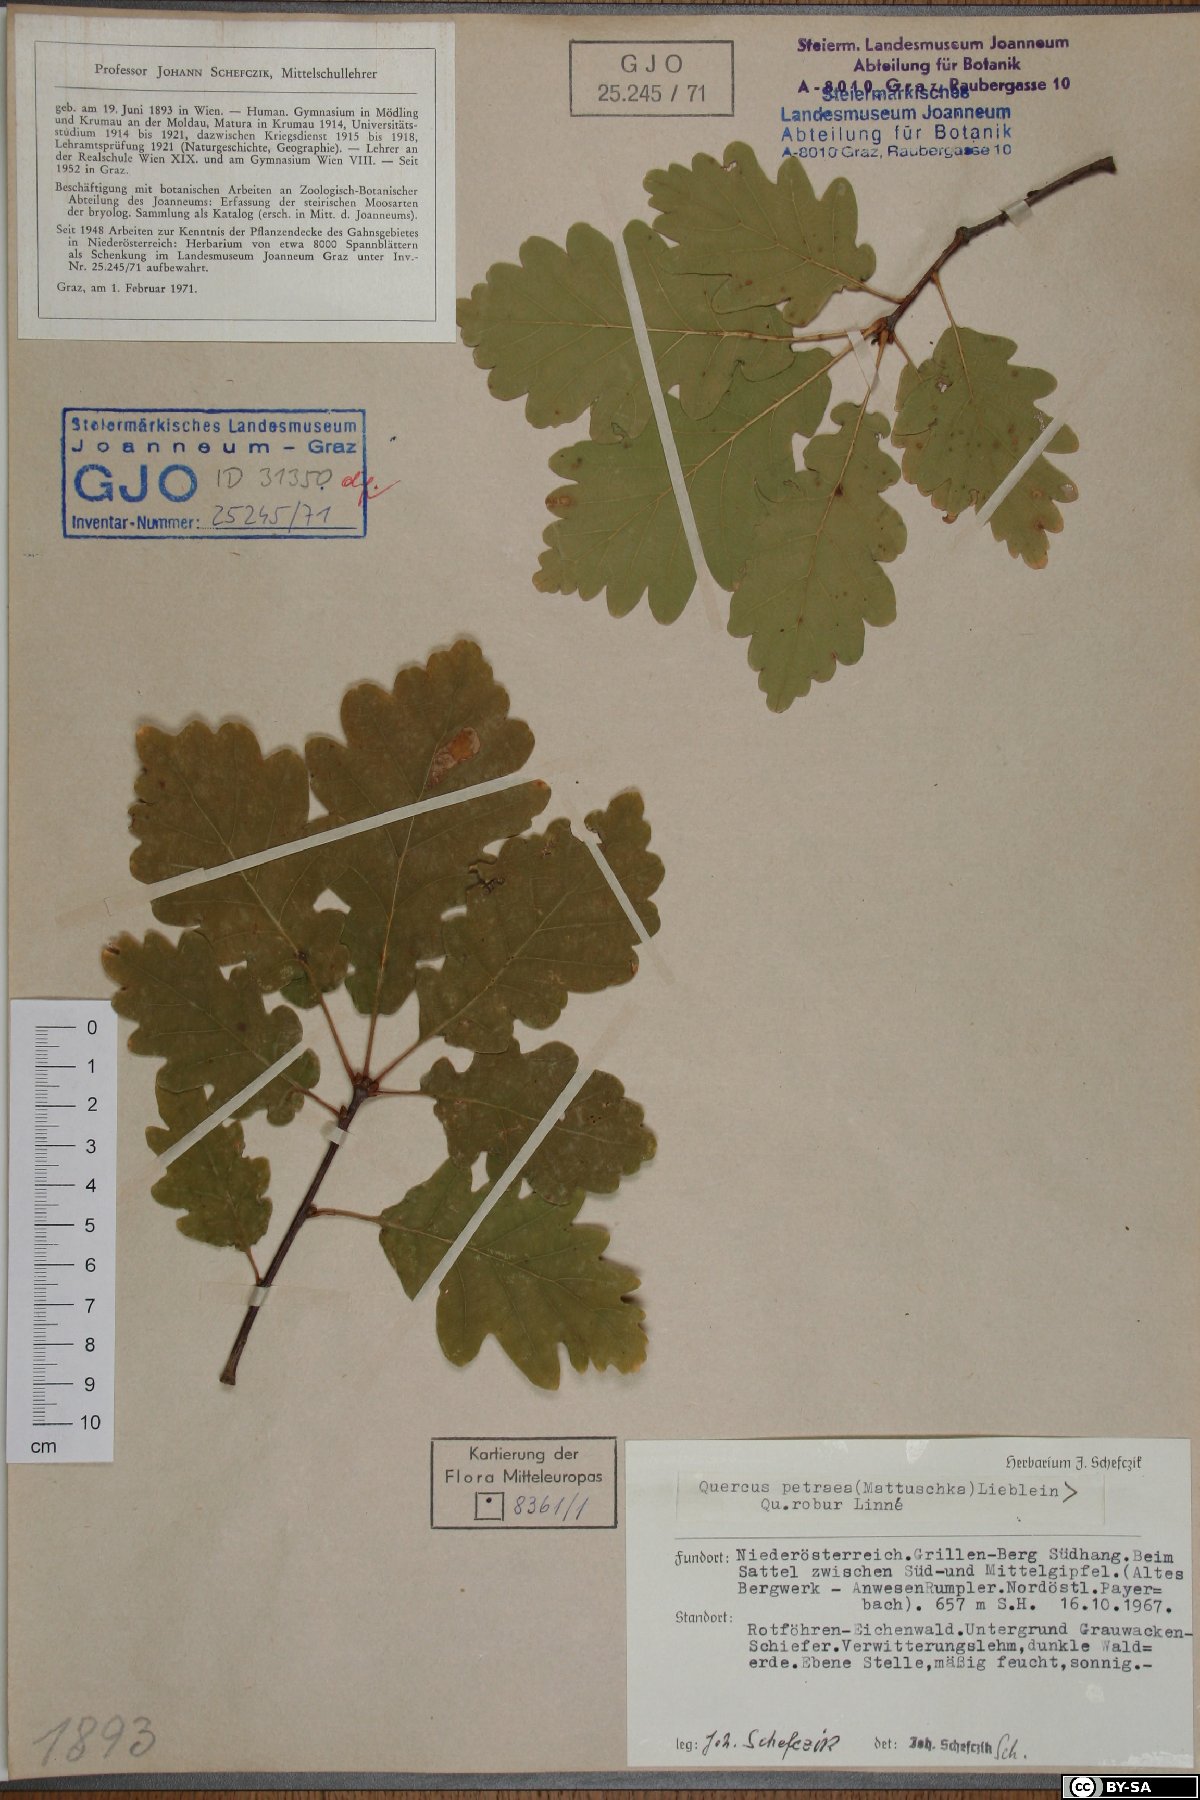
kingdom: Plantae
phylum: Tracheophyta
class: Magnoliopsida
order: Fagales
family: Fagaceae
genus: Quercus
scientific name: Quercus petraea
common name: Sessile oak
